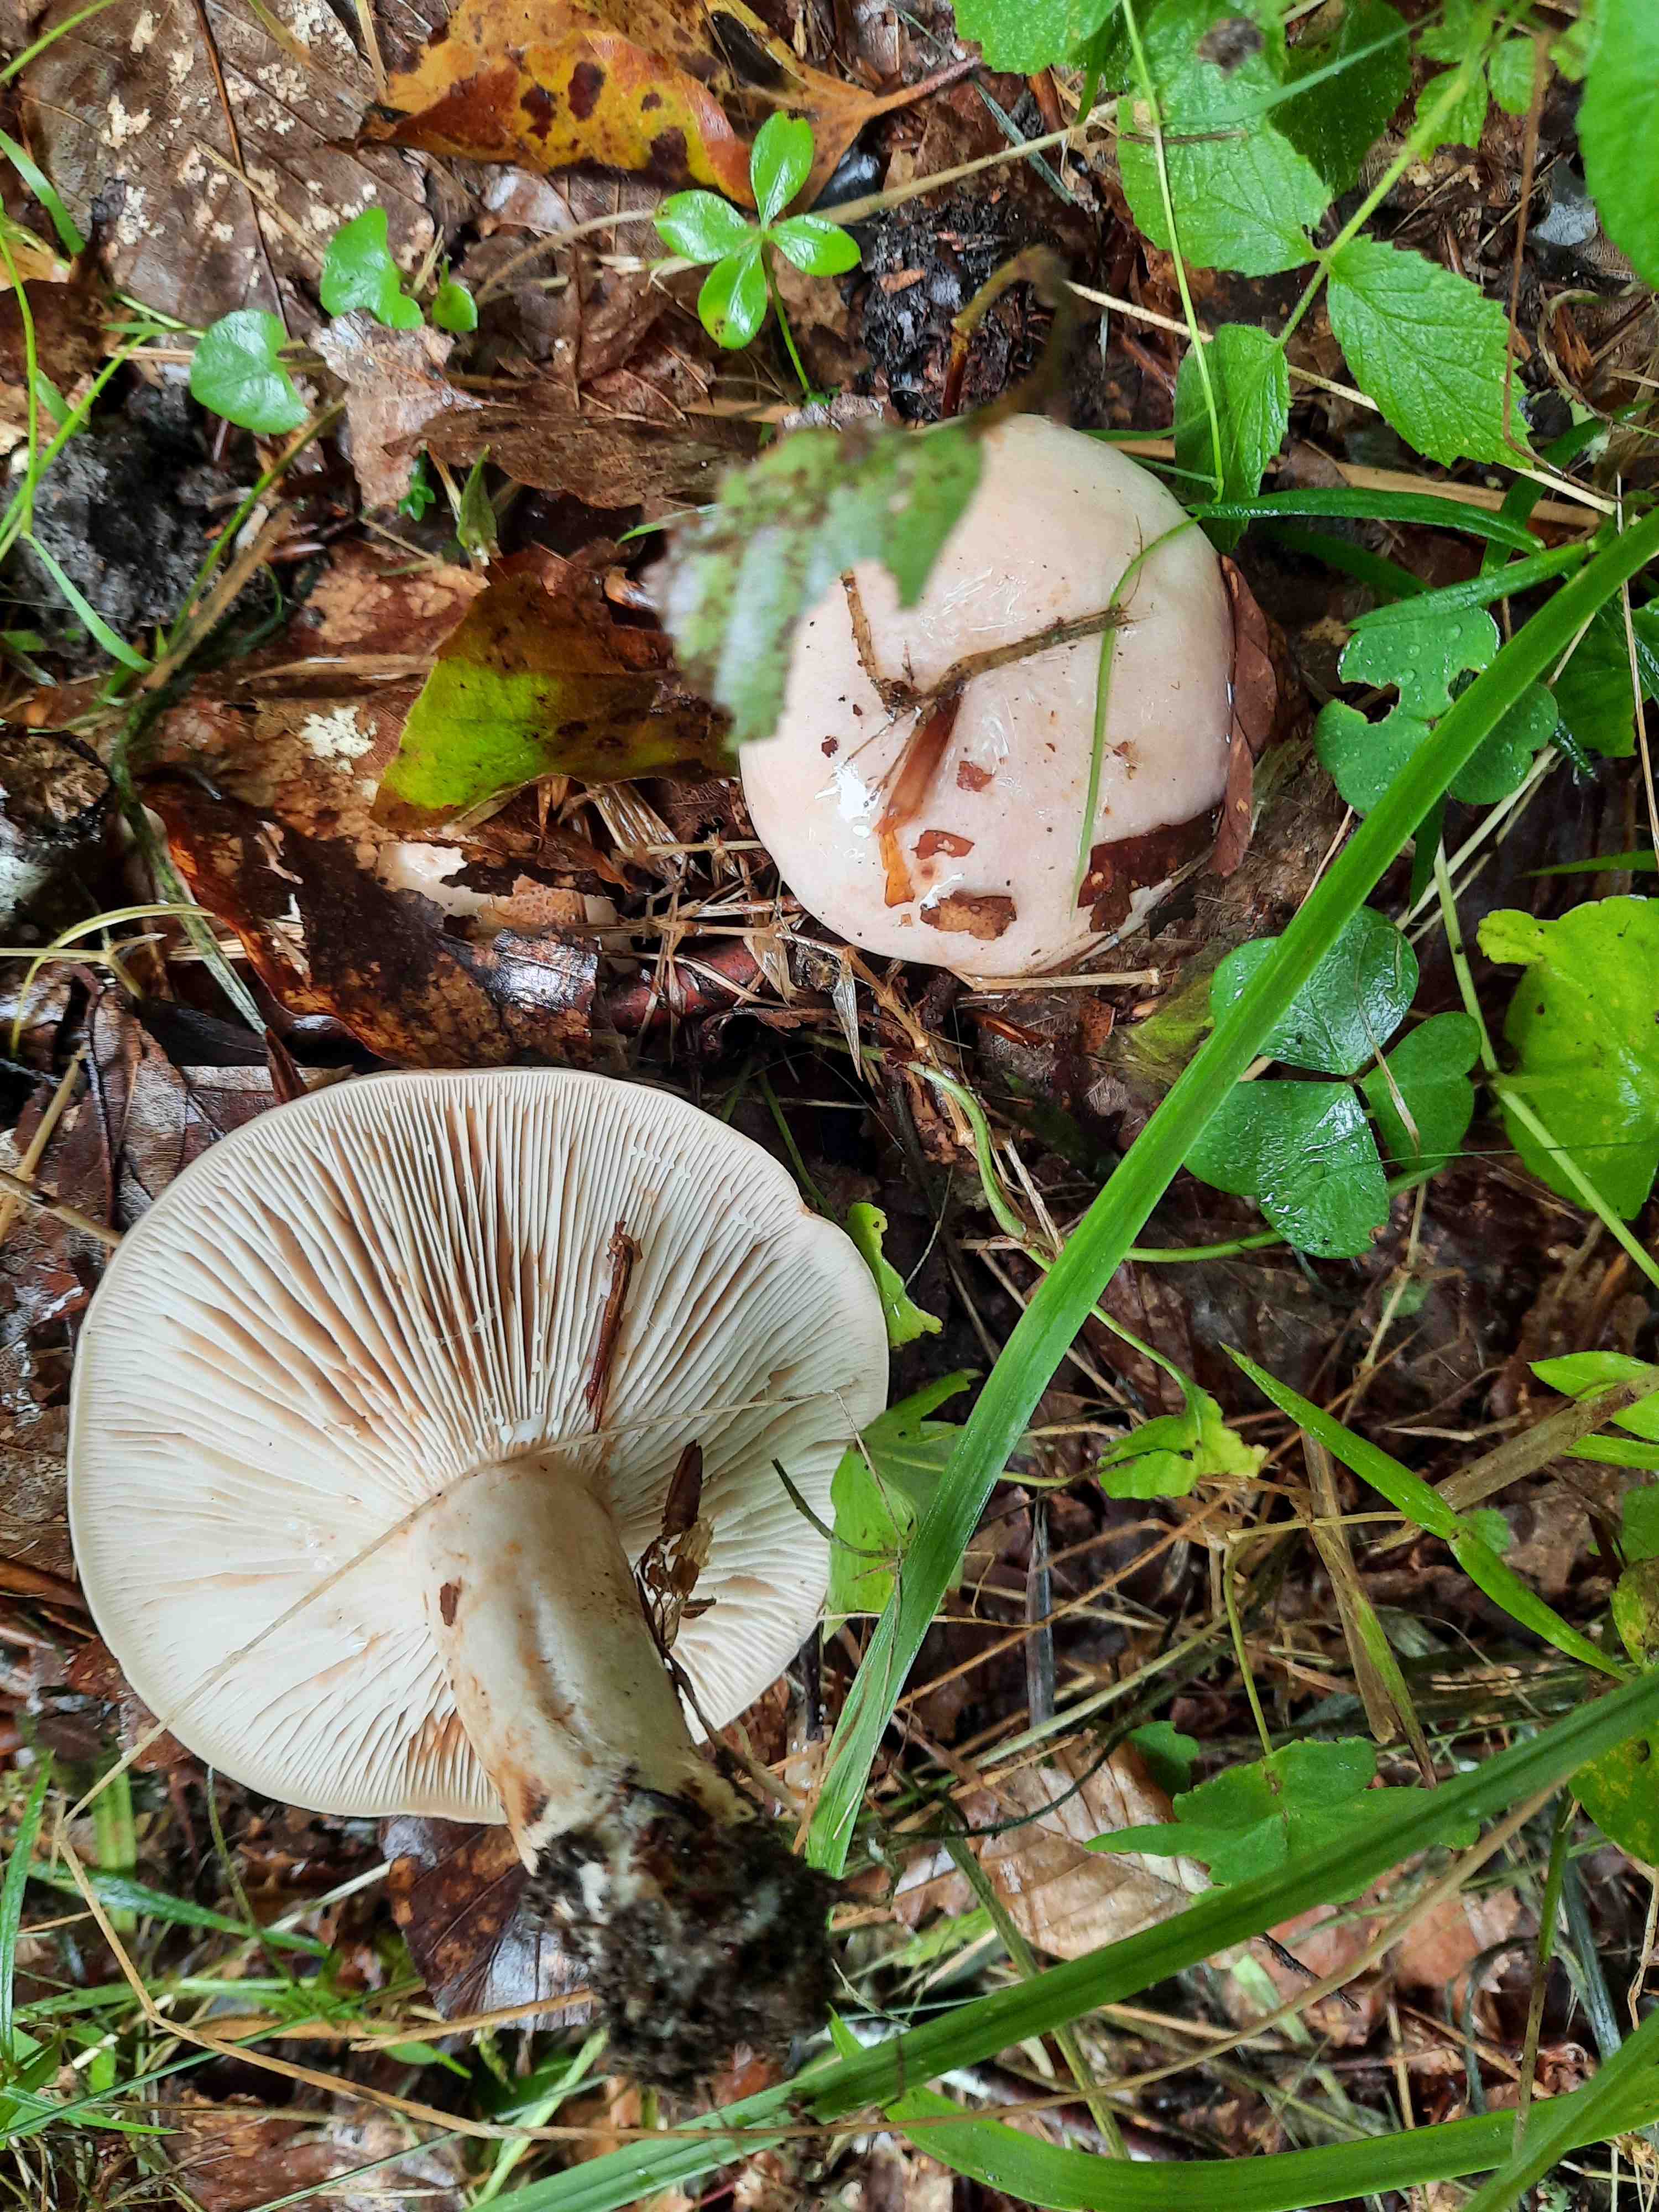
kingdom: Fungi
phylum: Basidiomycota
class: Agaricomycetes
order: Russulales
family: Russulaceae
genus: Lactarius
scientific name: Lactarius pallidus
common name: bleg mælkehat
